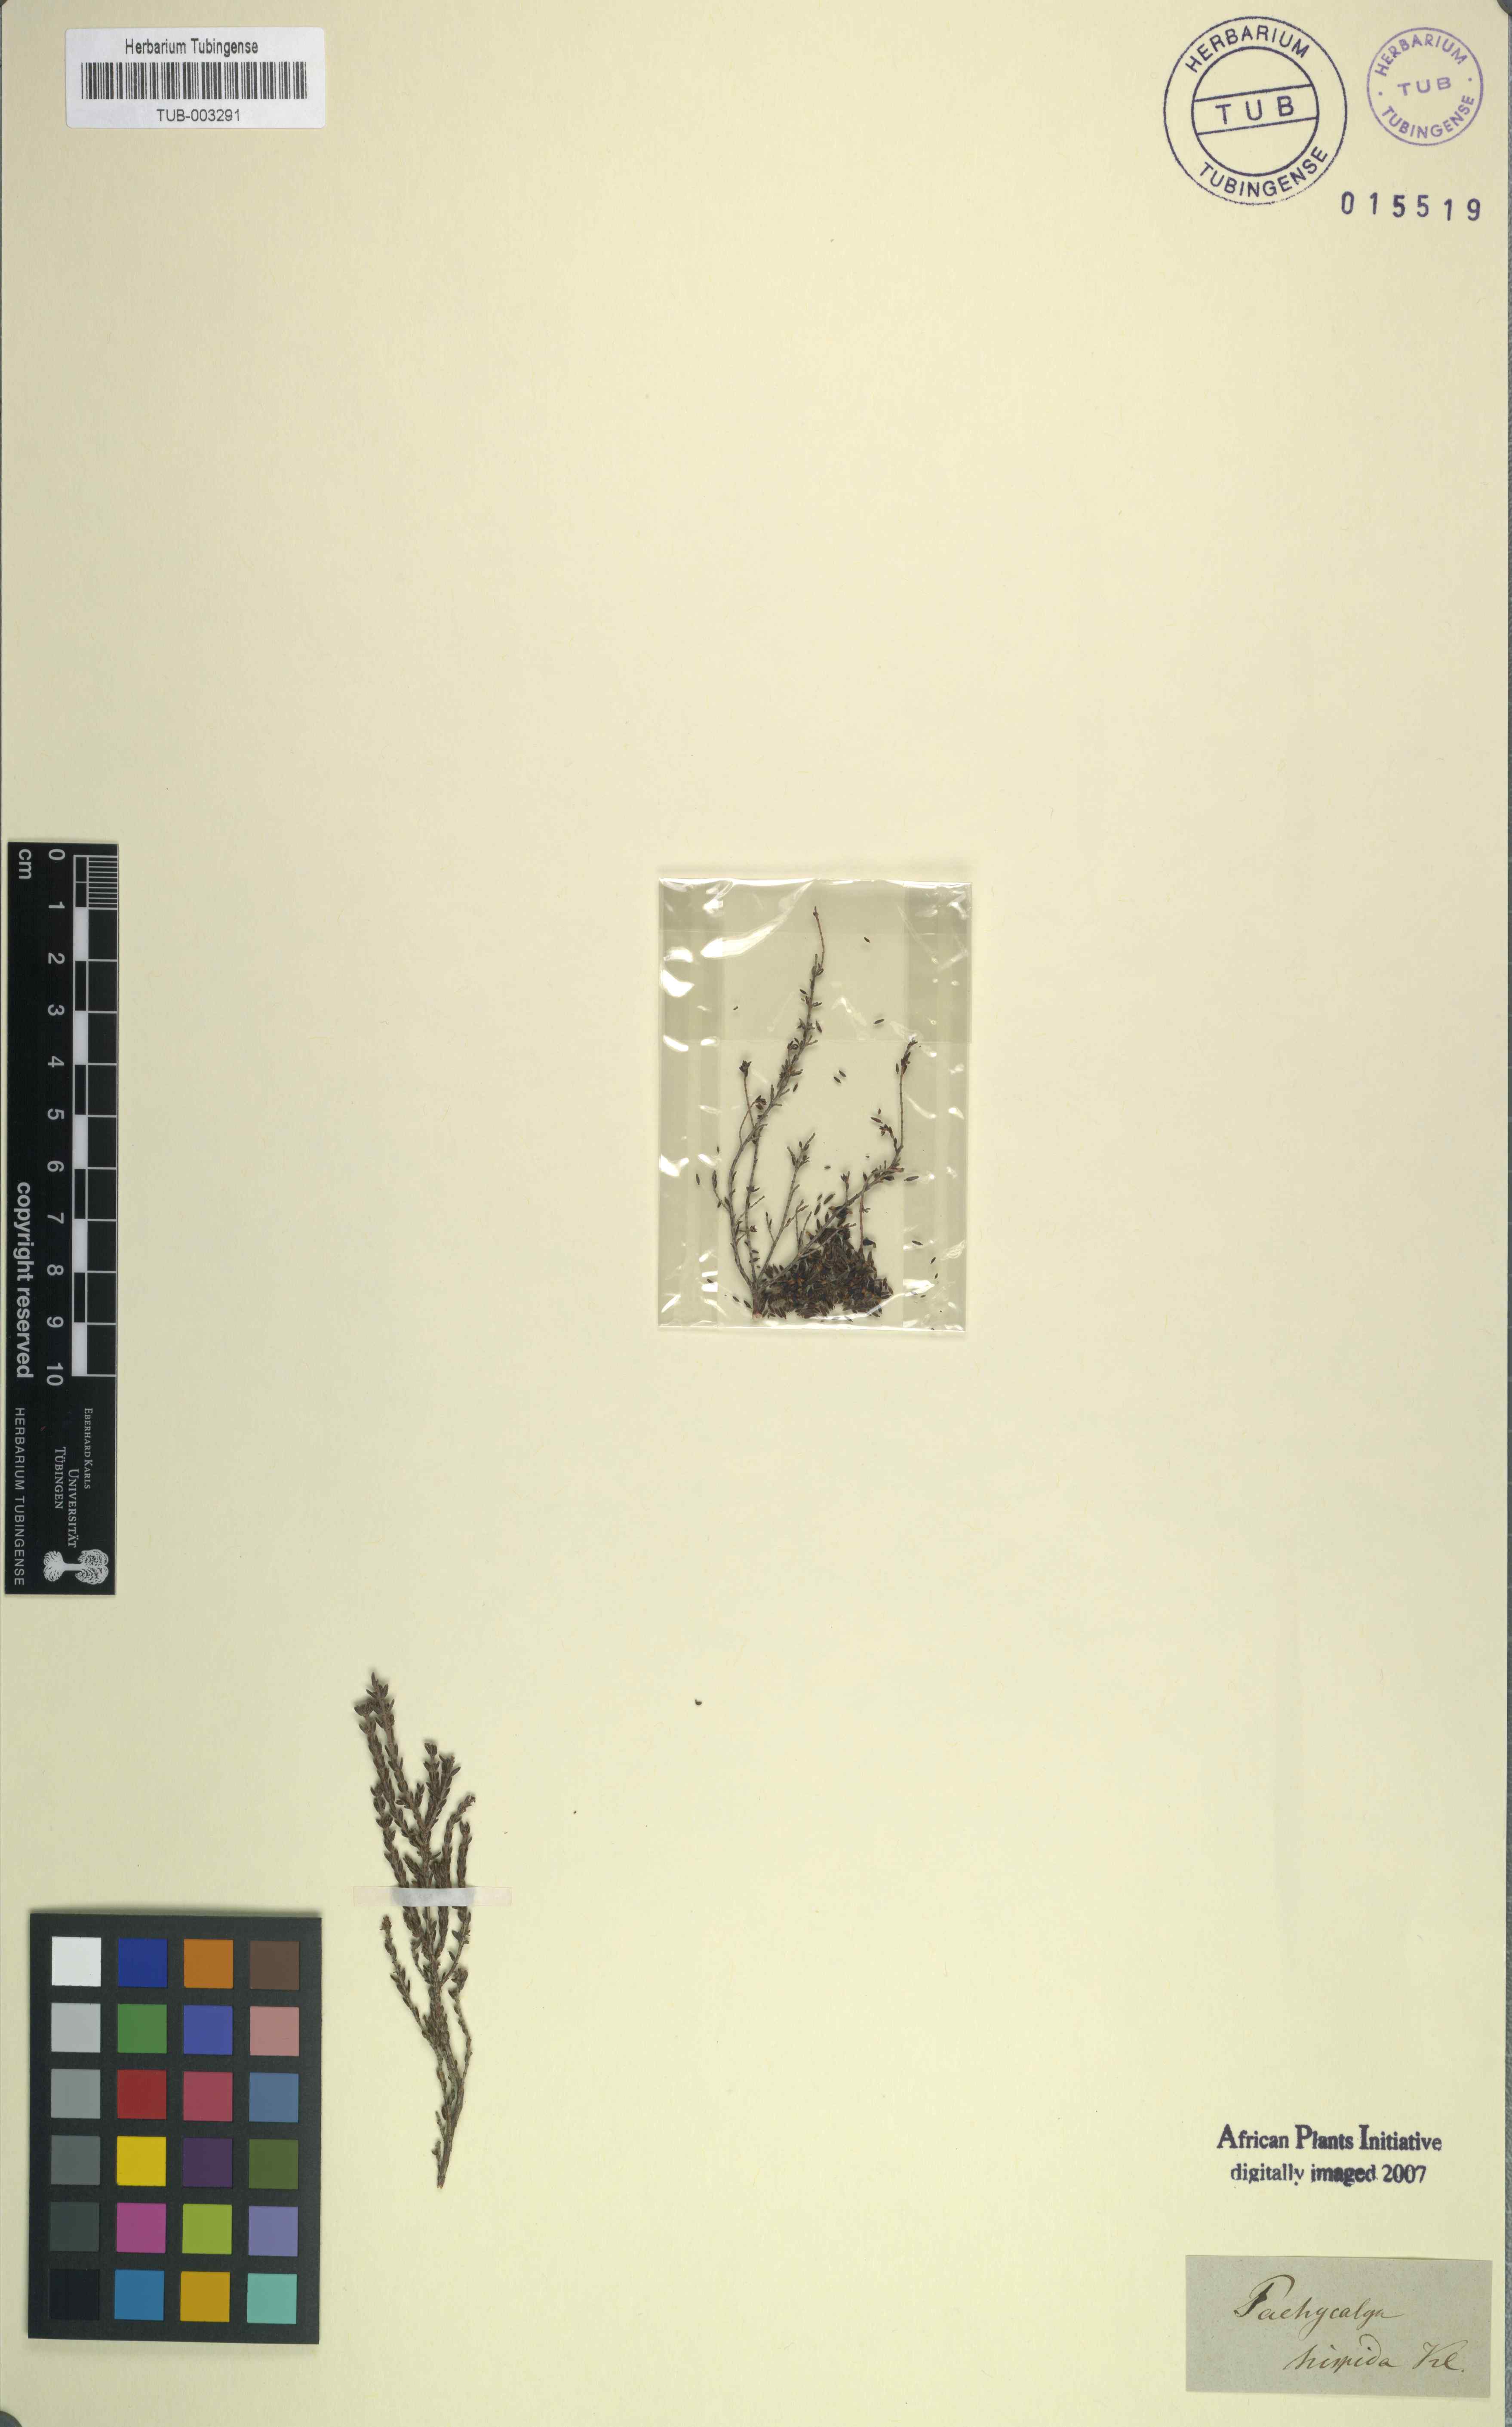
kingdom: Plantae
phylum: Tracheophyta
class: Magnoliopsida
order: Ericales
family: Ericaceae
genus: Erica
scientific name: Erica glabra
